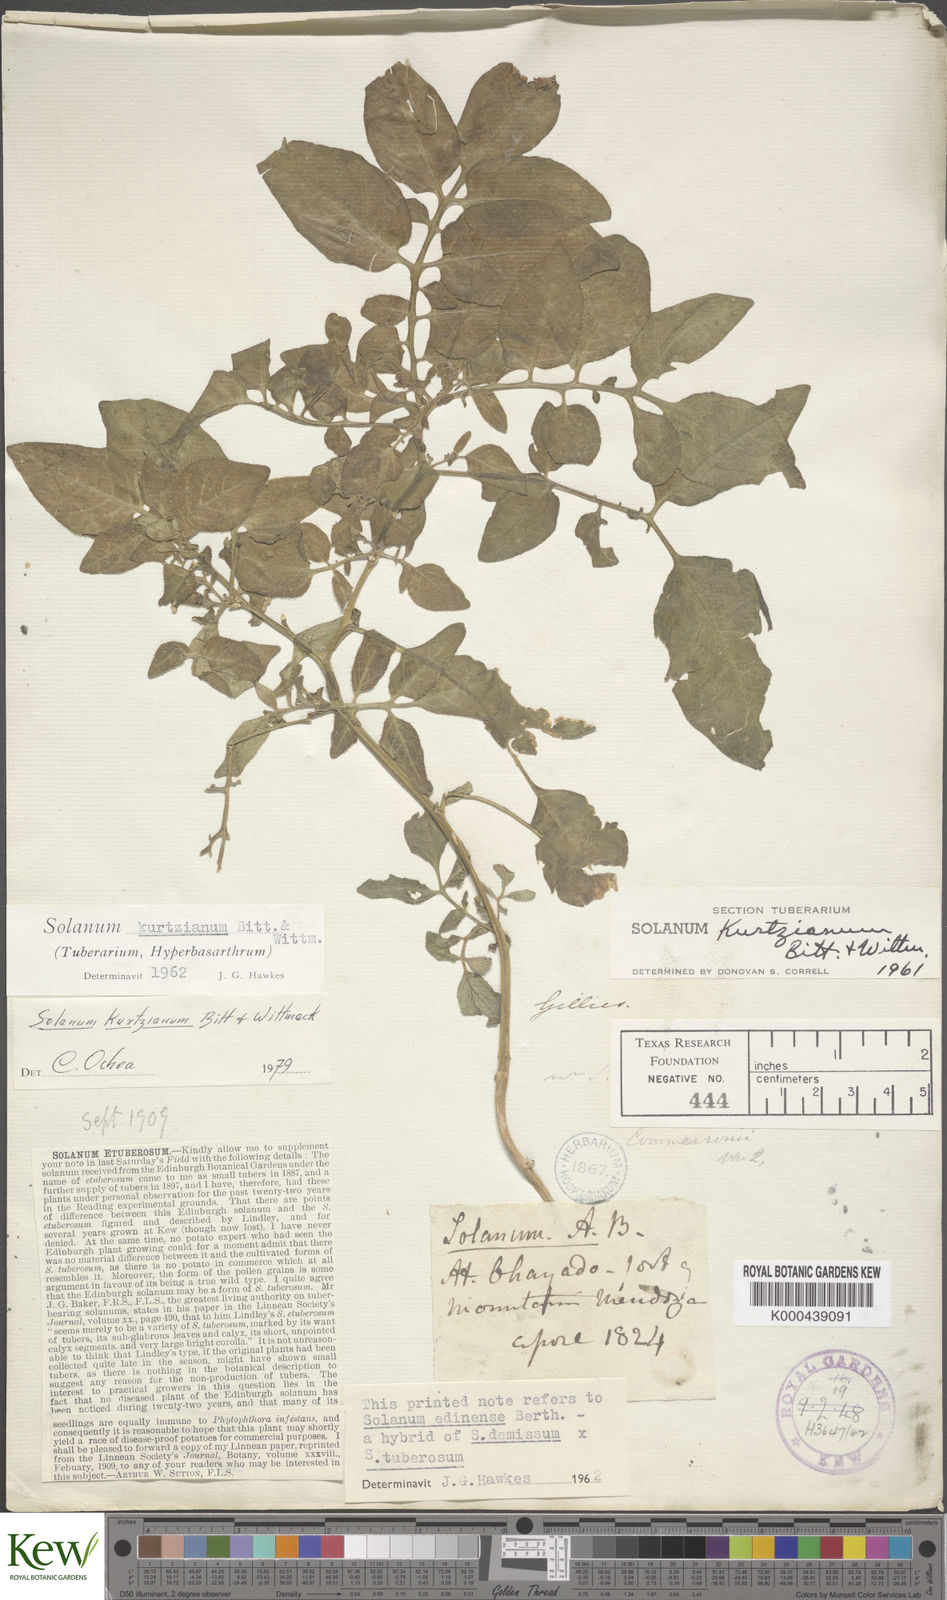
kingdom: Plantae
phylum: Tracheophyta
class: Magnoliopsida
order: Solanales
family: Solanaceae
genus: Solanum
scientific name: Solanum kurtzianum
